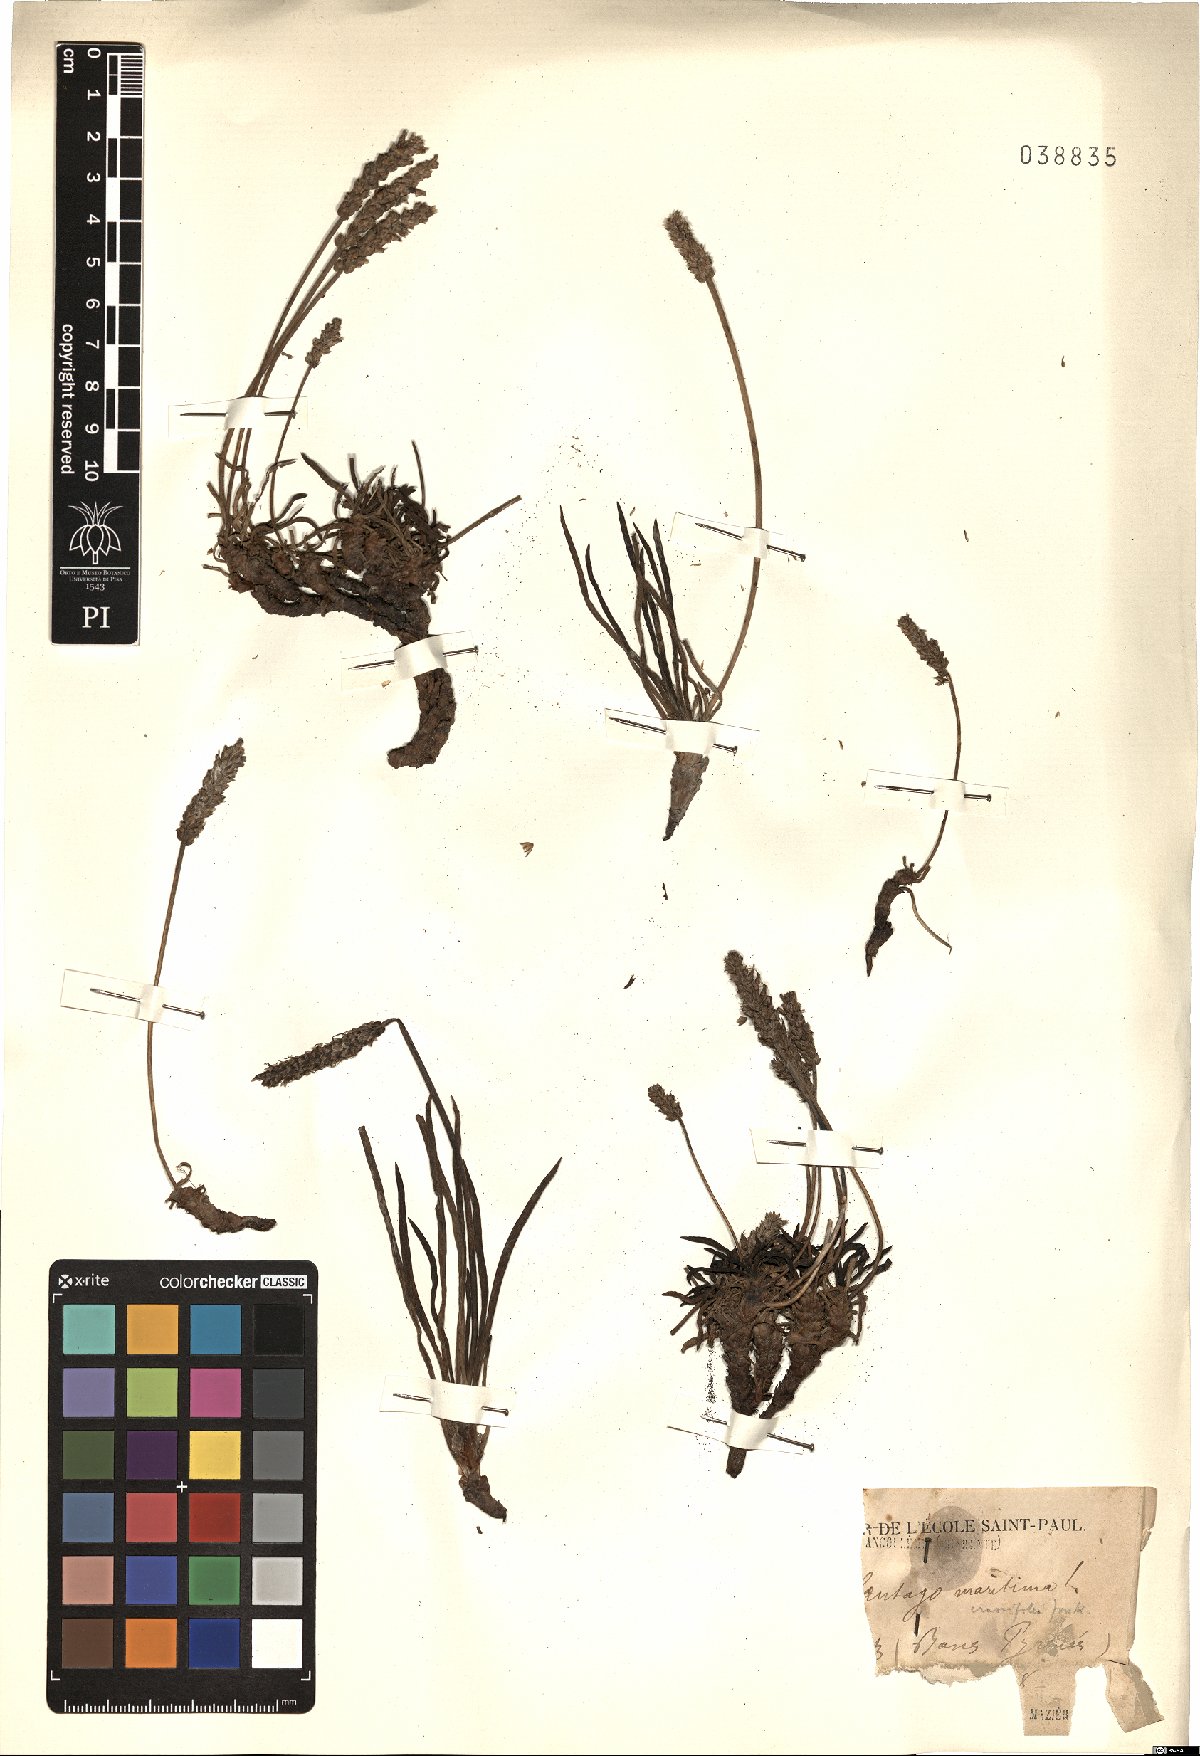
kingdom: Plantae
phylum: Tracheophyta
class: Magnoliopsida
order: Lamiales
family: Plantaginaceae
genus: Plantago
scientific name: Plantago maritima
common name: Sea plantain
